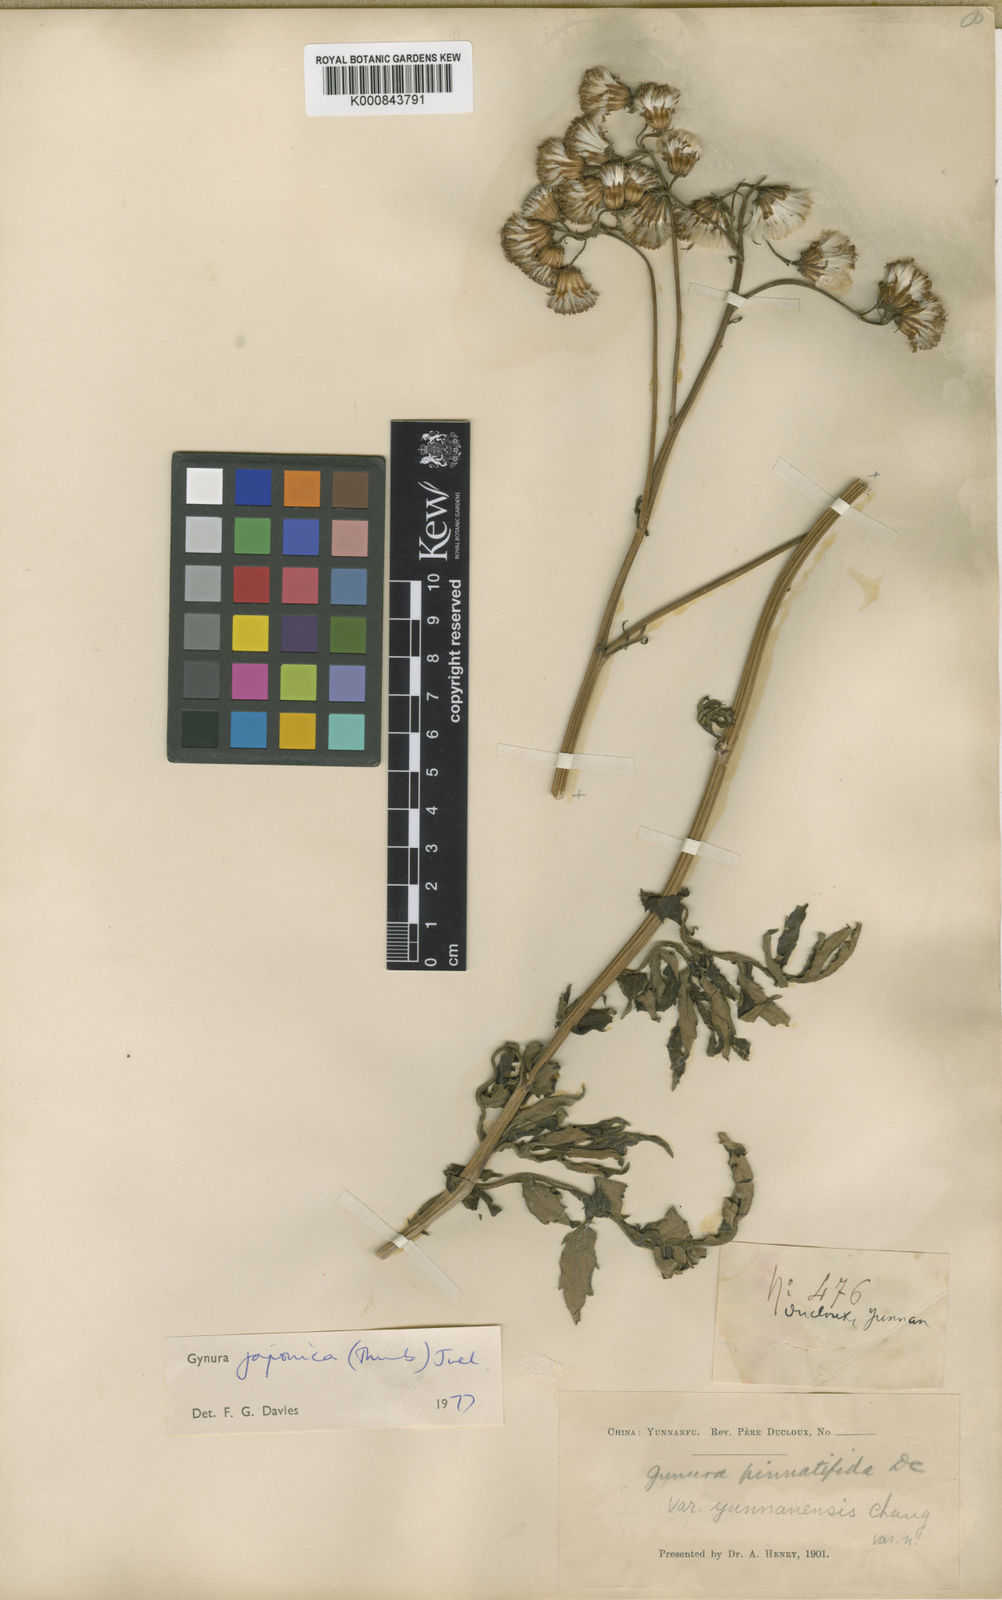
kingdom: Plantae
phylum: Tracheophyta
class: Magnoliopsida
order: Asterales
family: Asteraceae
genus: Gynura
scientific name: Gynura japonica
